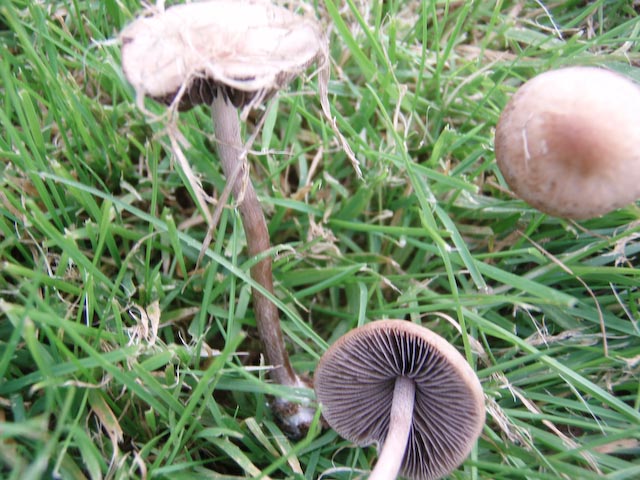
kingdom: Fungi
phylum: Basidiomycota
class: Agaricomycetes
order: Agaricales
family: Bolbitiaceae
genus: Panaeolus
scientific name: Panaeolus fimicola
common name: tidlig glanshat
